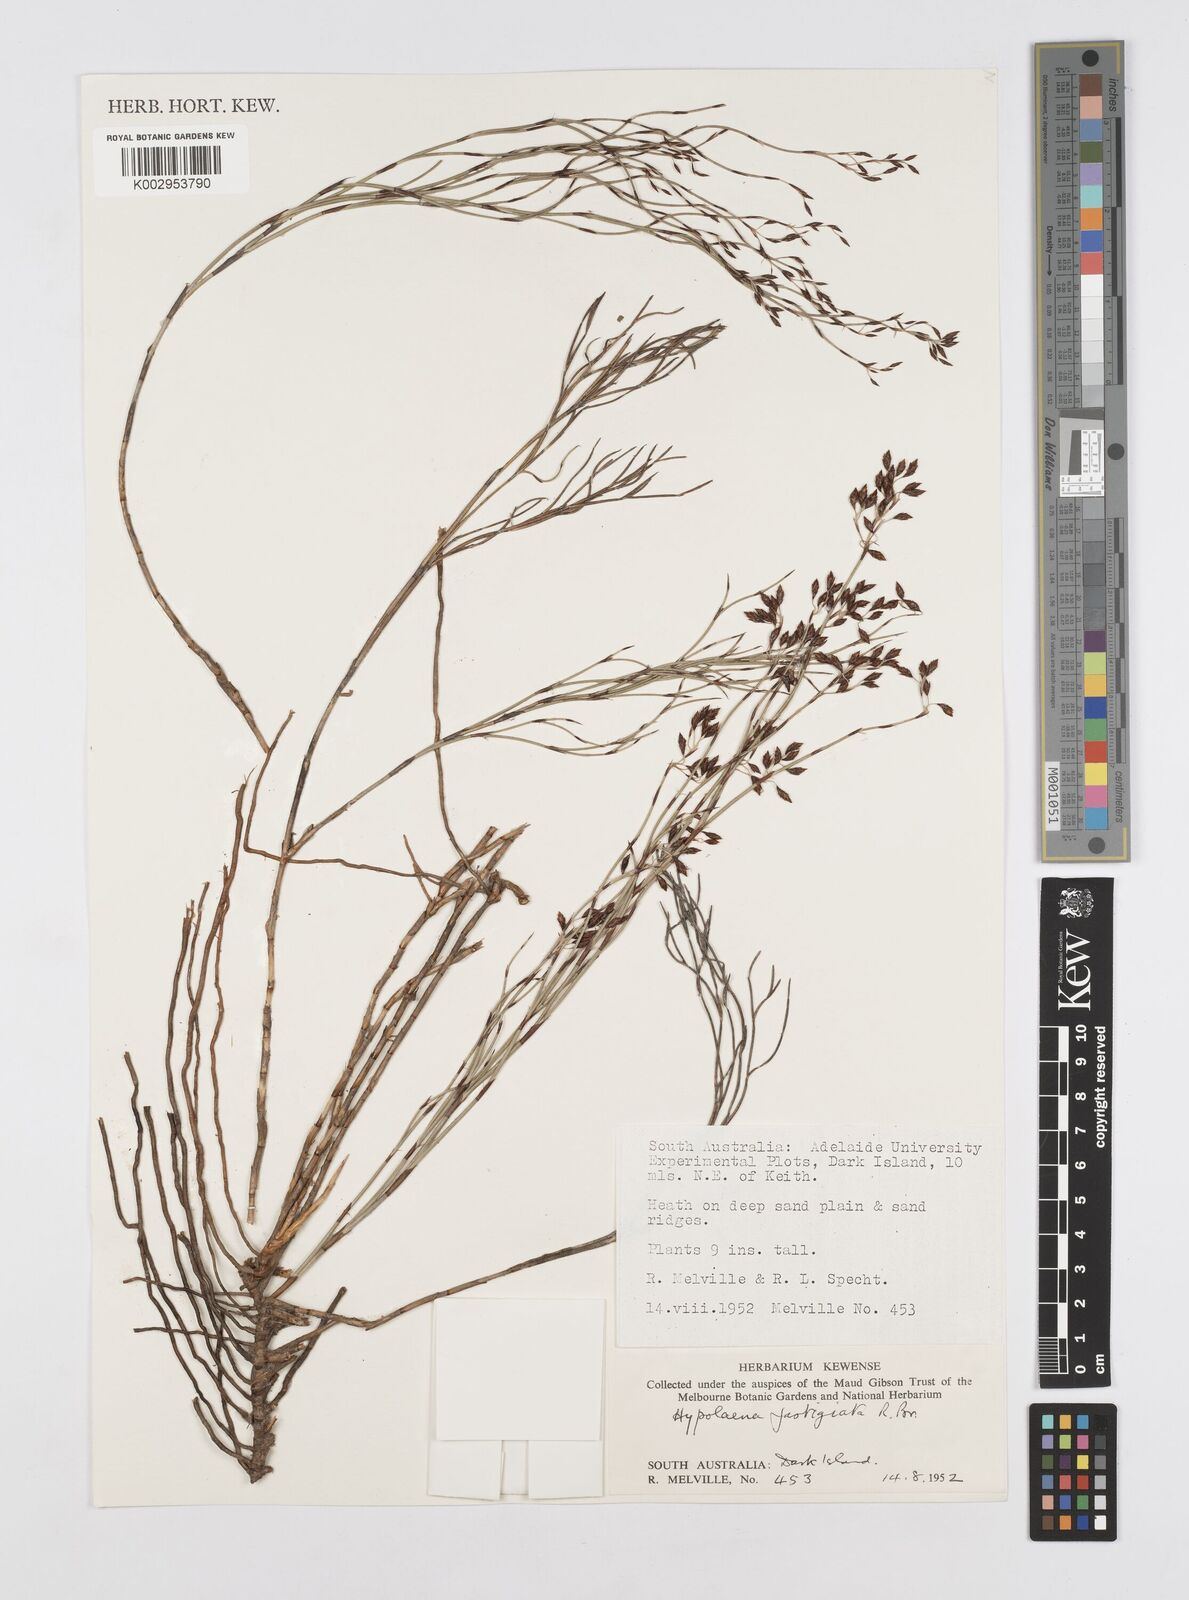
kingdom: Plantae
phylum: Tracheophyta
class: Liliopsida
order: Poales
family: Restionaceae
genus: Hypolaena
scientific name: Hypolaena fastigiata
